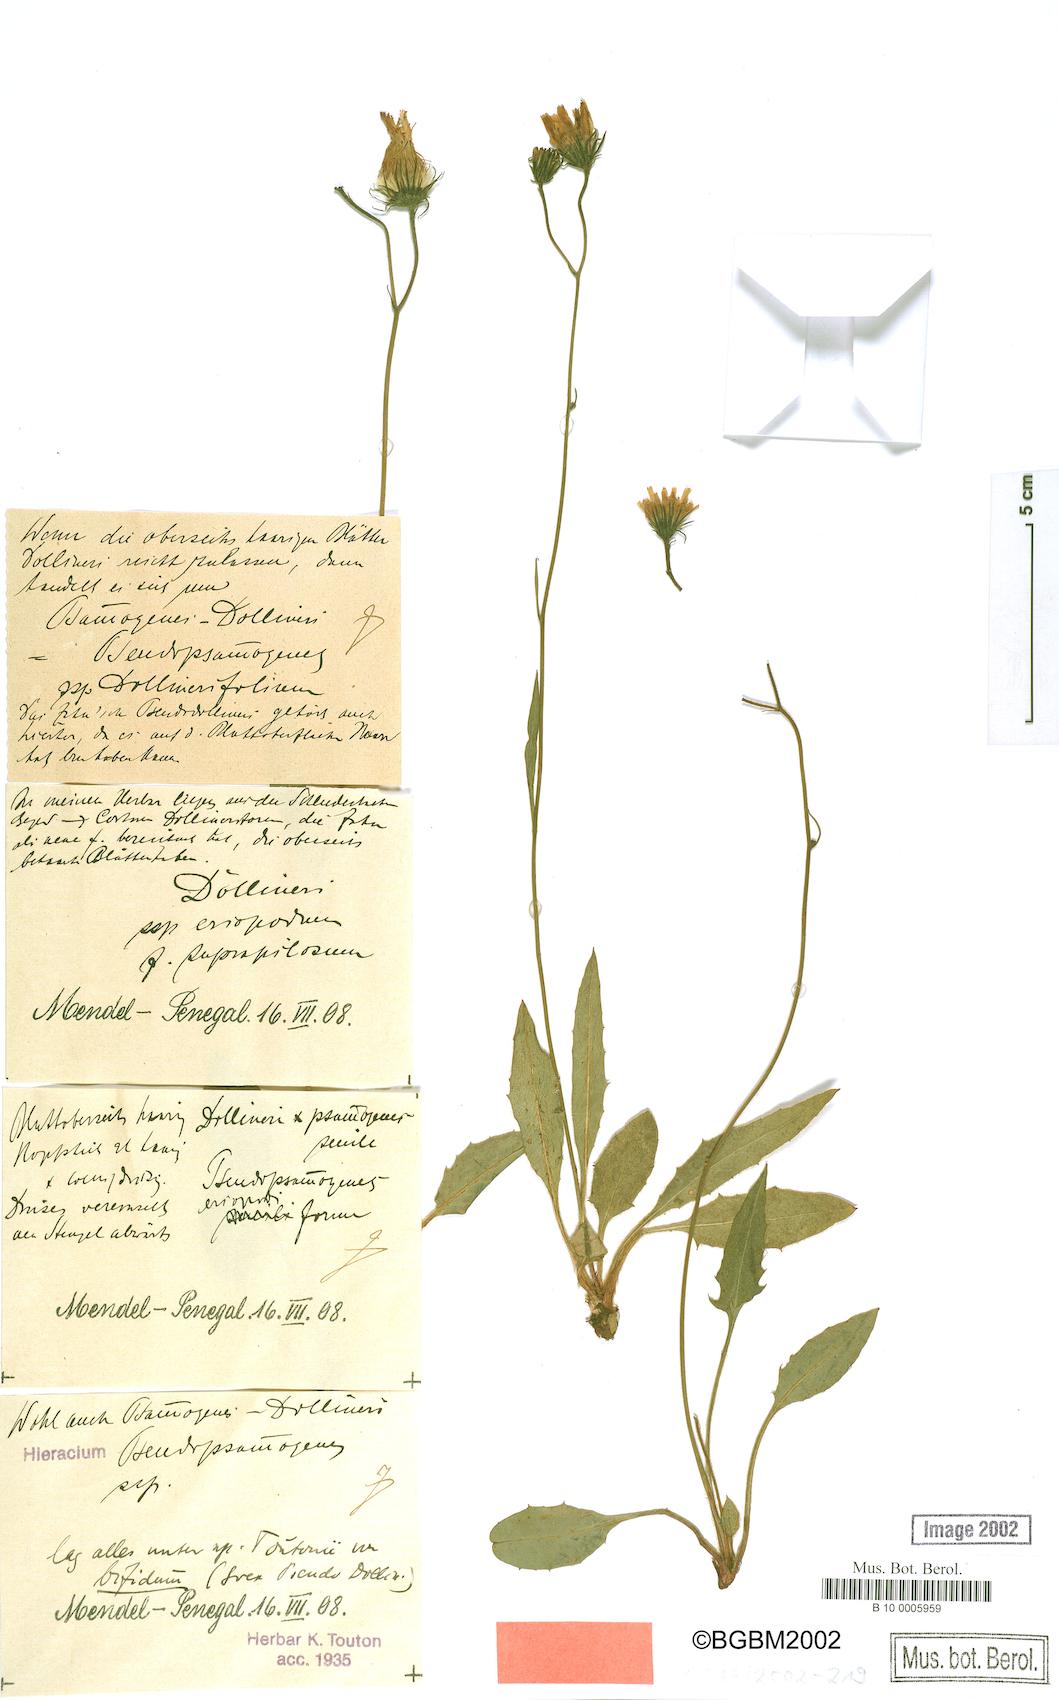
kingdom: Plantae
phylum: Tracheophyta
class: Magnoliopsida
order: Asterales
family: Asteraceae
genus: Hieracium
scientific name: Hieracium bifidum
